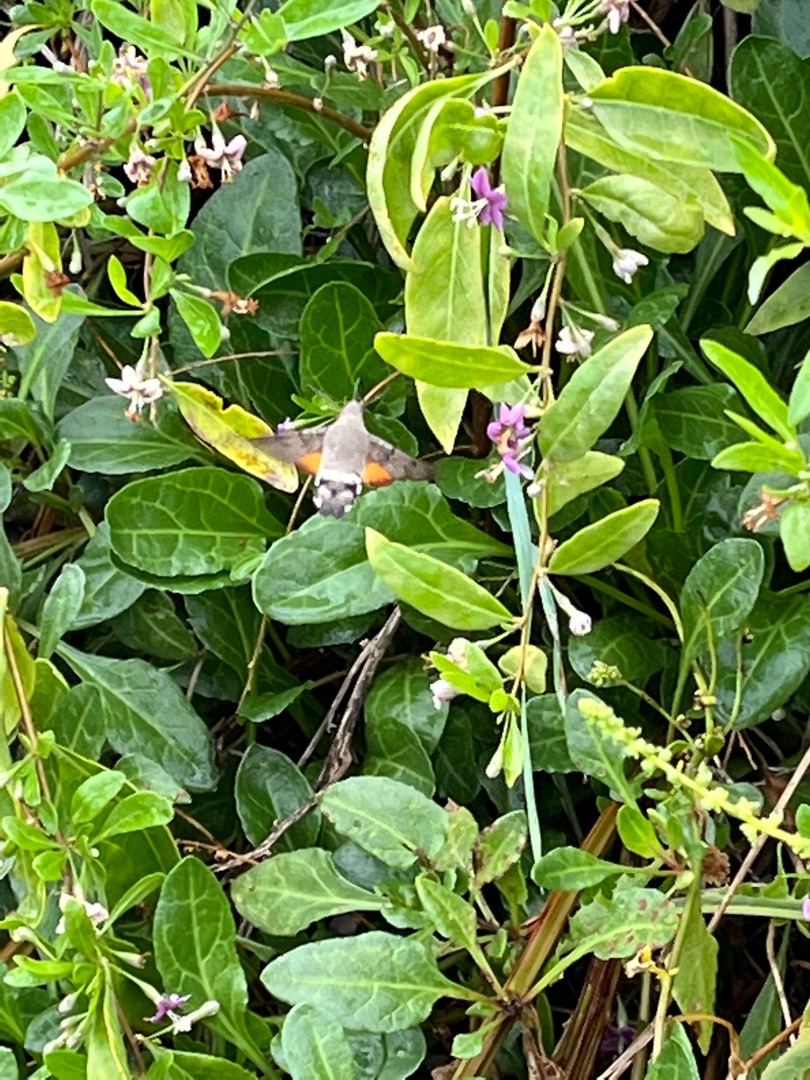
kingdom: Animalia
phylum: Arthropoda
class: Insecta
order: Lepidoptera
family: Sphingidae
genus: Macroglossum
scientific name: Macroglossum stellatarum
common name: Duehale
